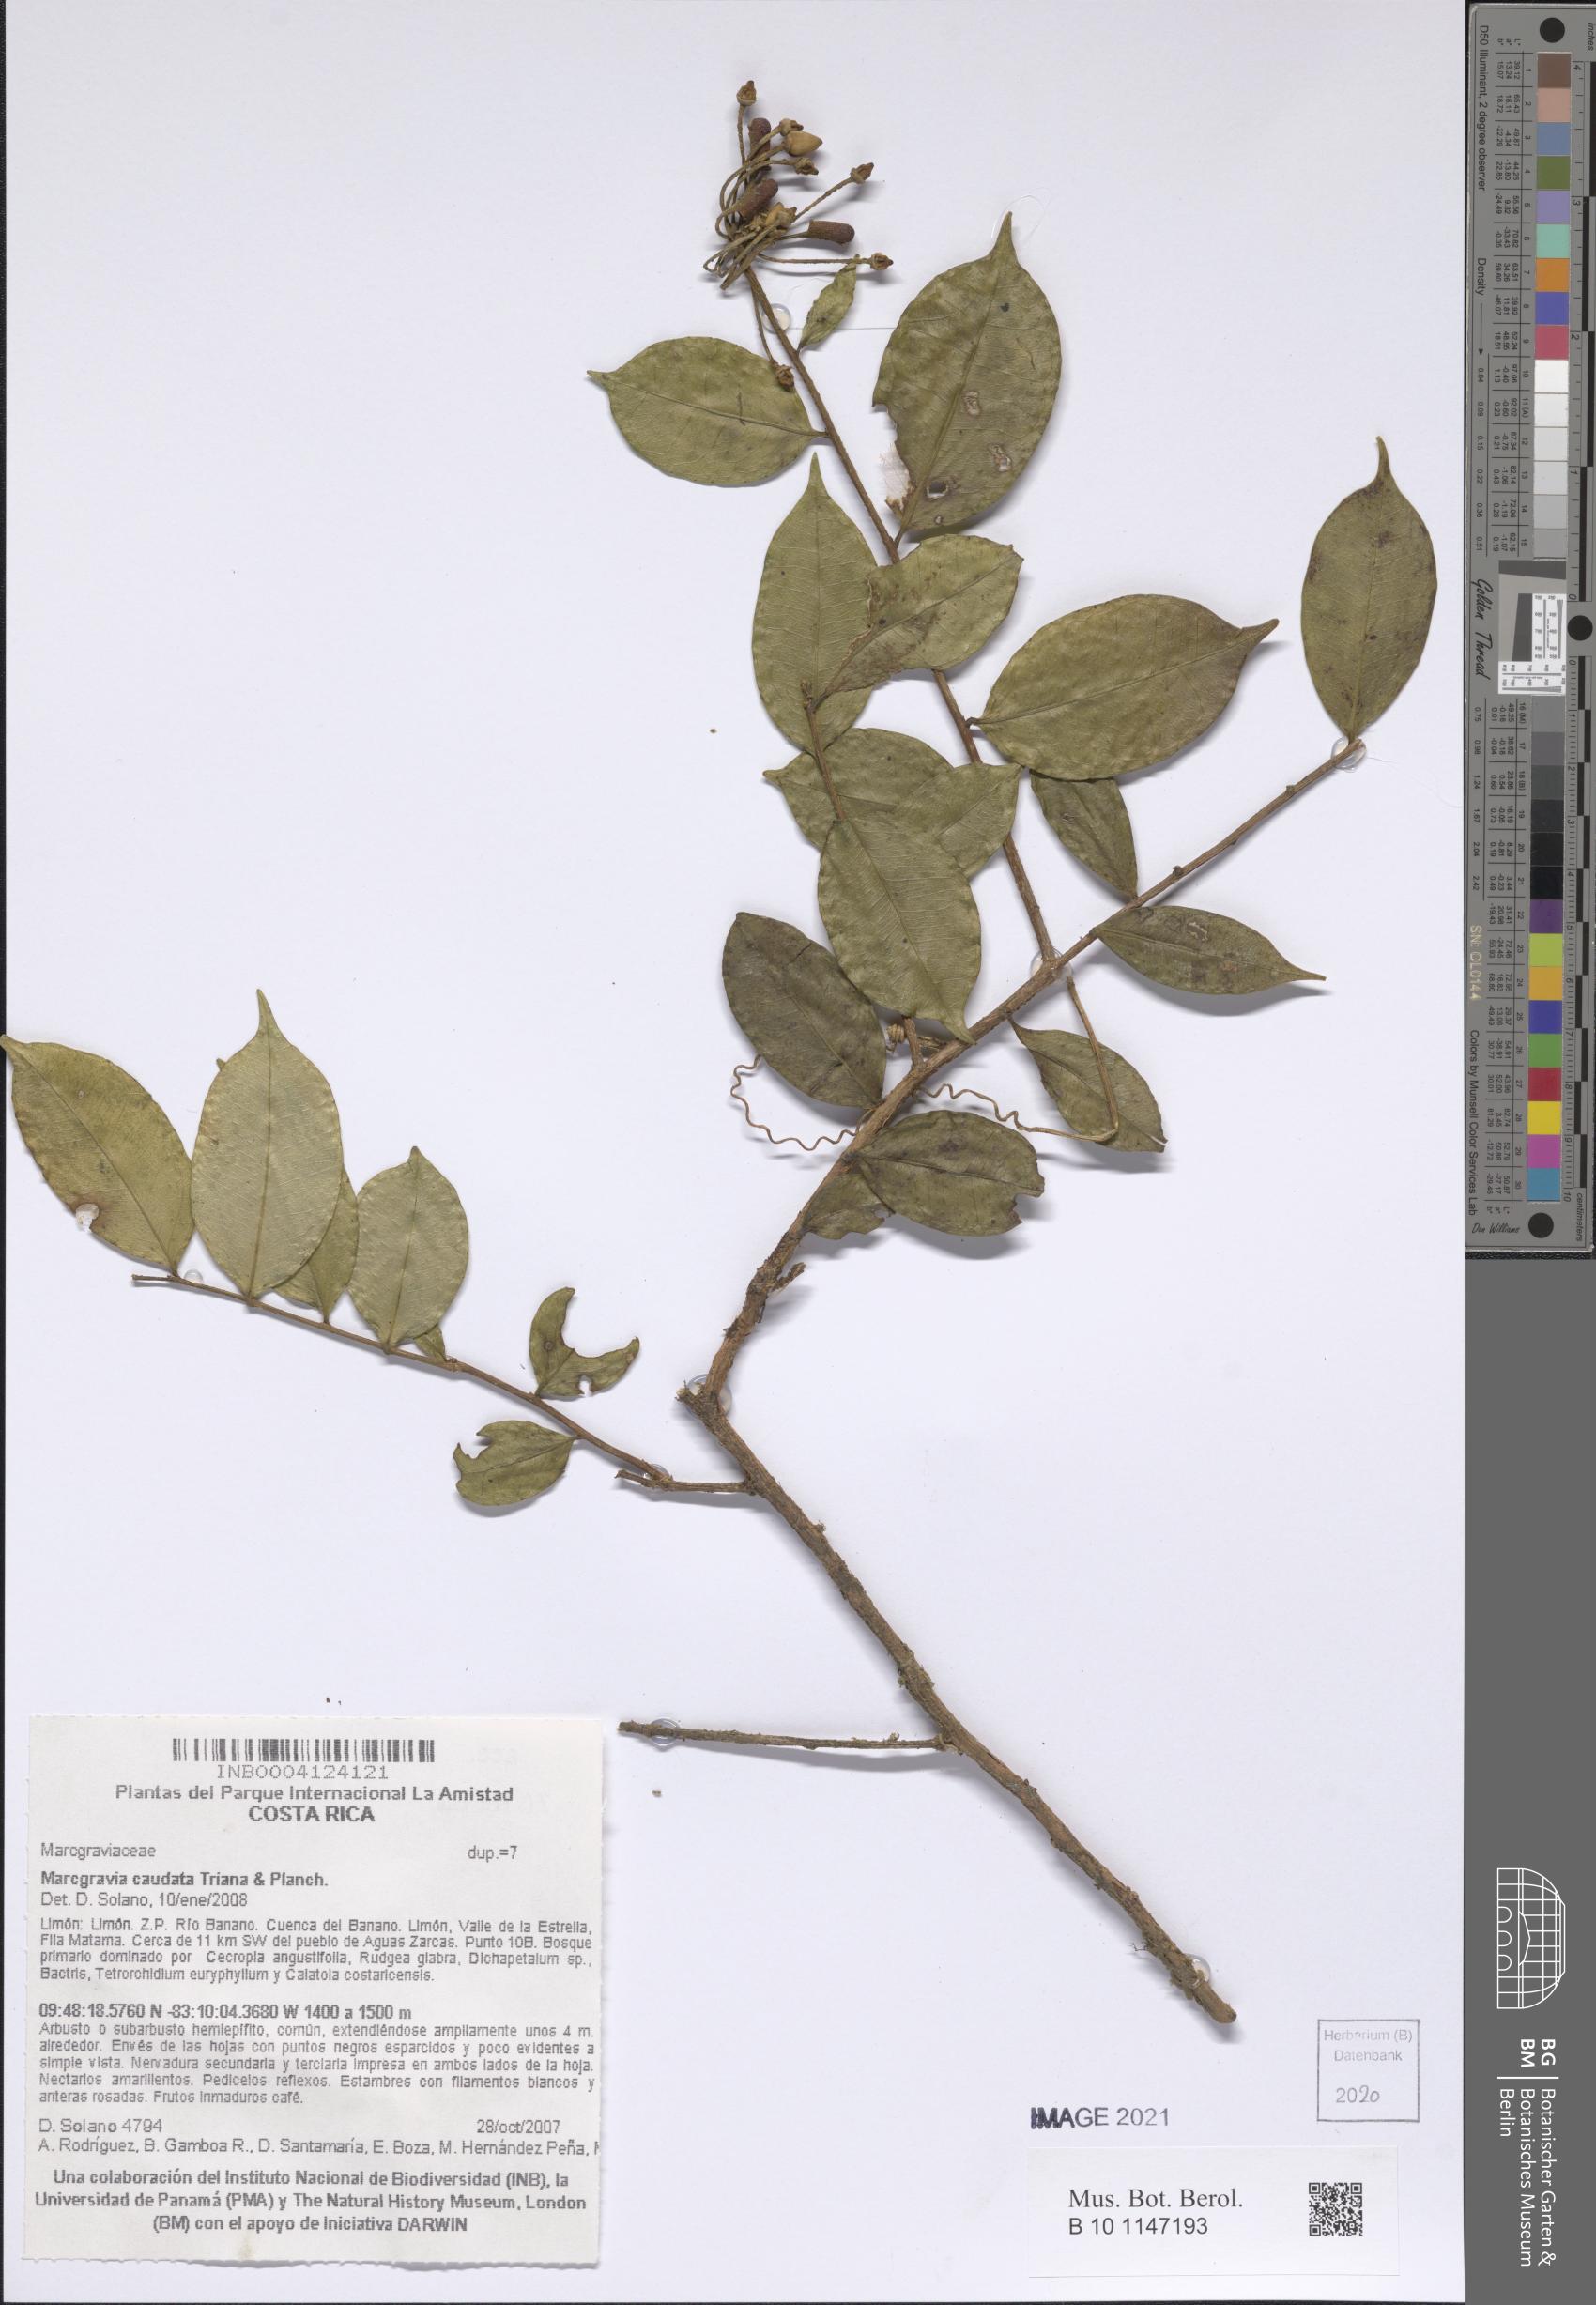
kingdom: Plantae
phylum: Tracheophyta
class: Magnoliopsida
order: Ericales
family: Marcgraviaceae
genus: Marcgravia
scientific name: Marcgravia caudata
